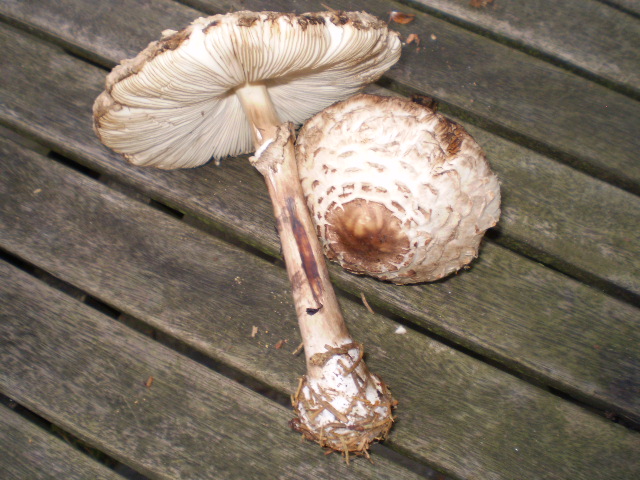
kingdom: Fungi
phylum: Basidiomycota
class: Agaricomycetes
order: Agaricales
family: Agaricaceae
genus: Chlorophyllum
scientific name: Chlorophyllum olivieri
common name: almindelig rabarberhat
